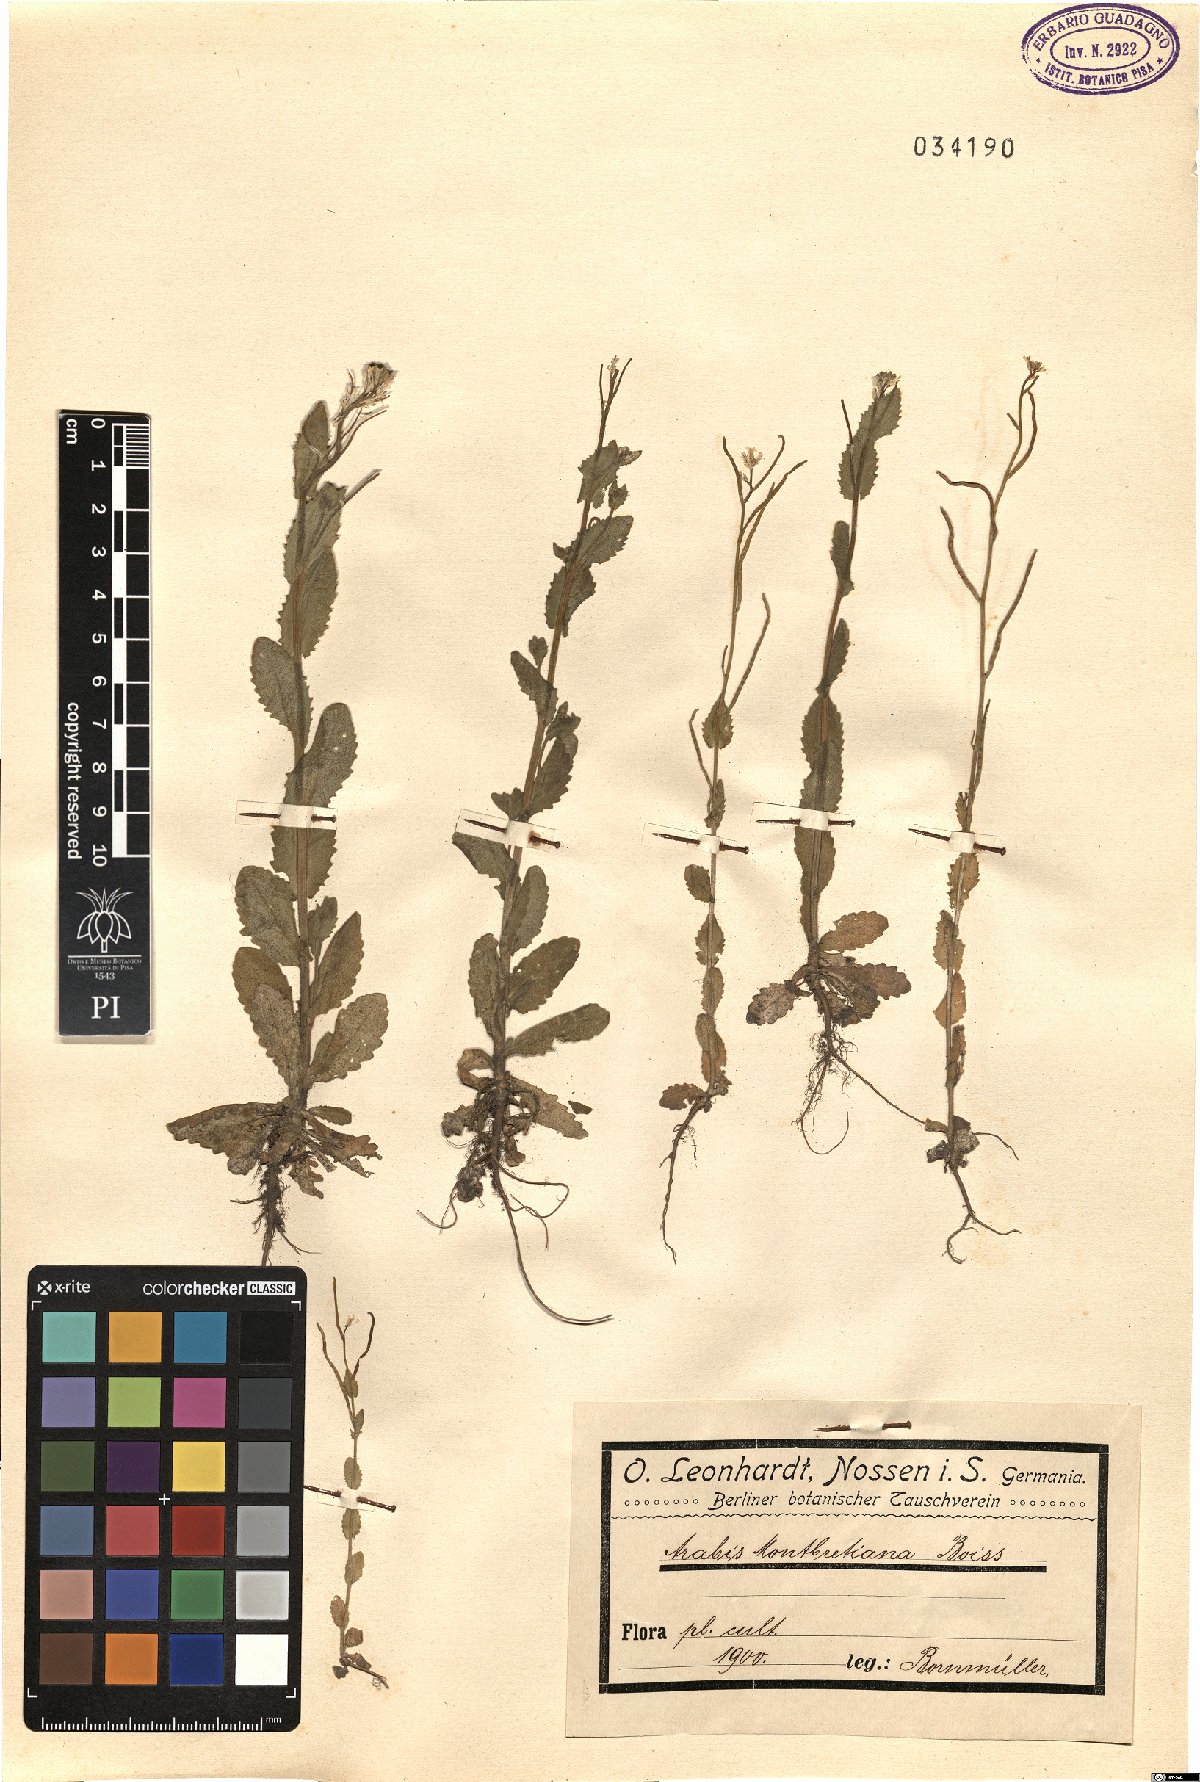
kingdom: Plantae
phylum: Tracheophyta
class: Magnoliopsida
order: Brassicales
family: Brassicaceae
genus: Arabis
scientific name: Arabis nova
